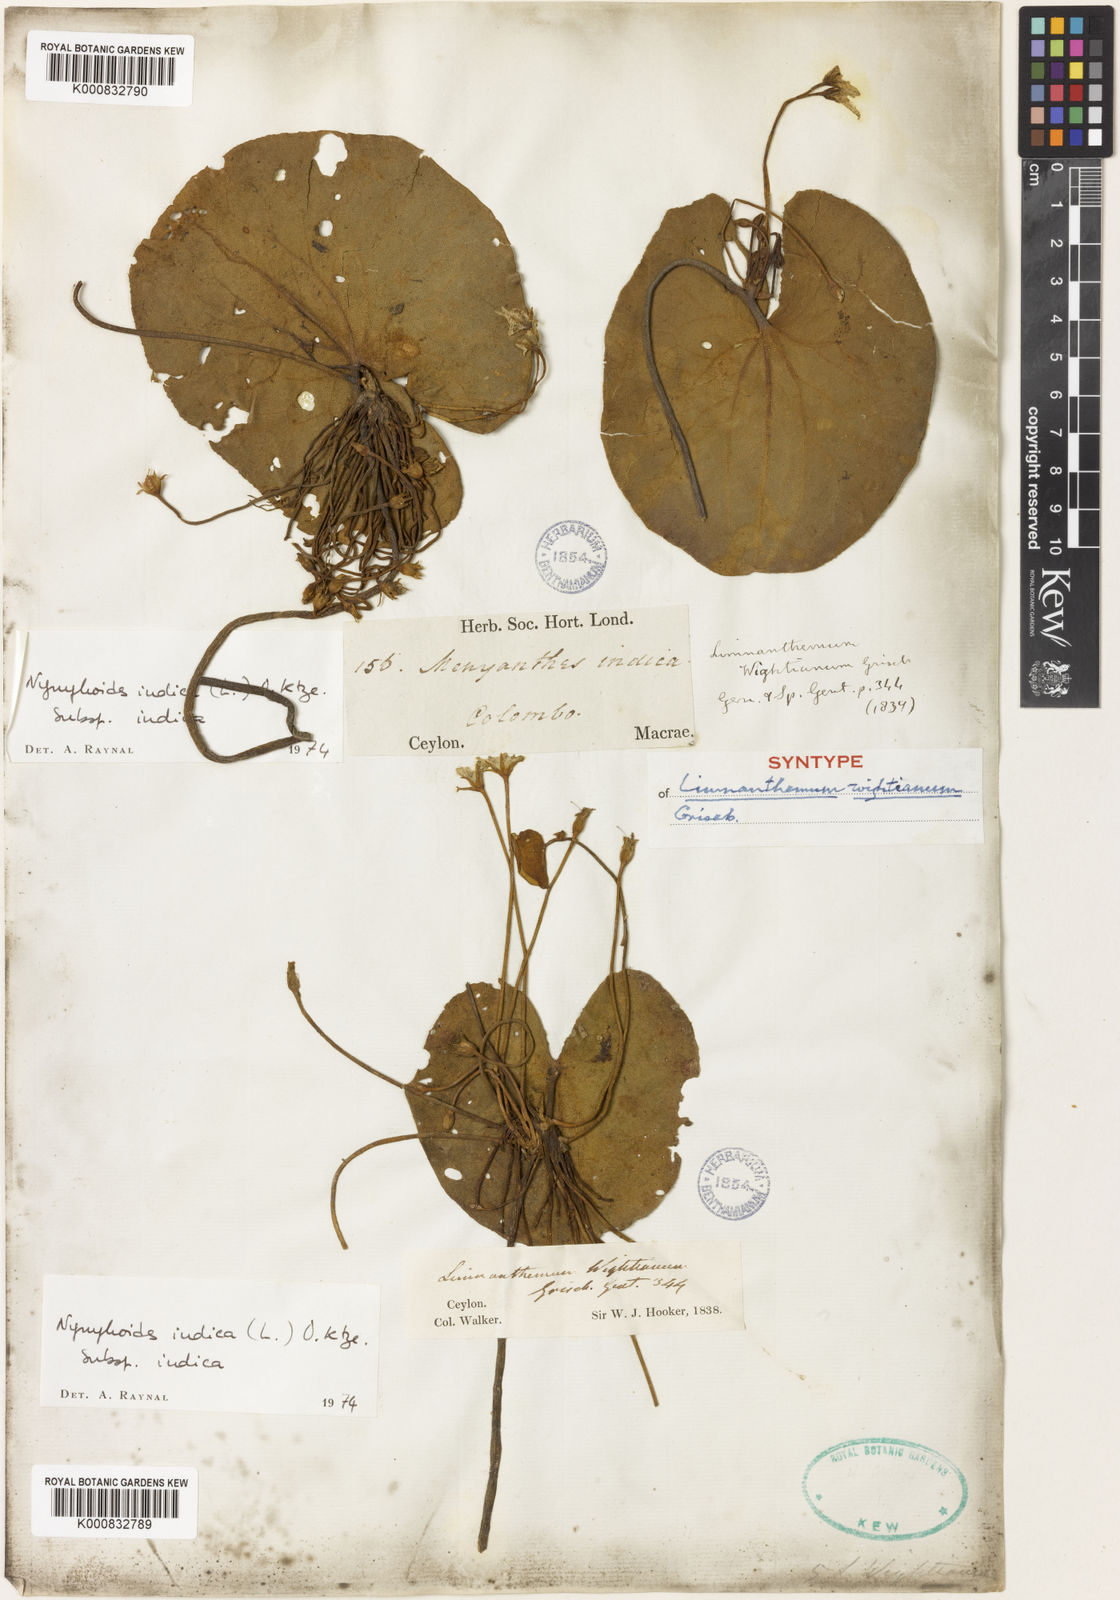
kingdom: Plantae
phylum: Tracheophyta
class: Magnoliopsida
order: Asterales
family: Menyanthaceae
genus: Nymphoides
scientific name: Nymphoides indica
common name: Water-snowflake
